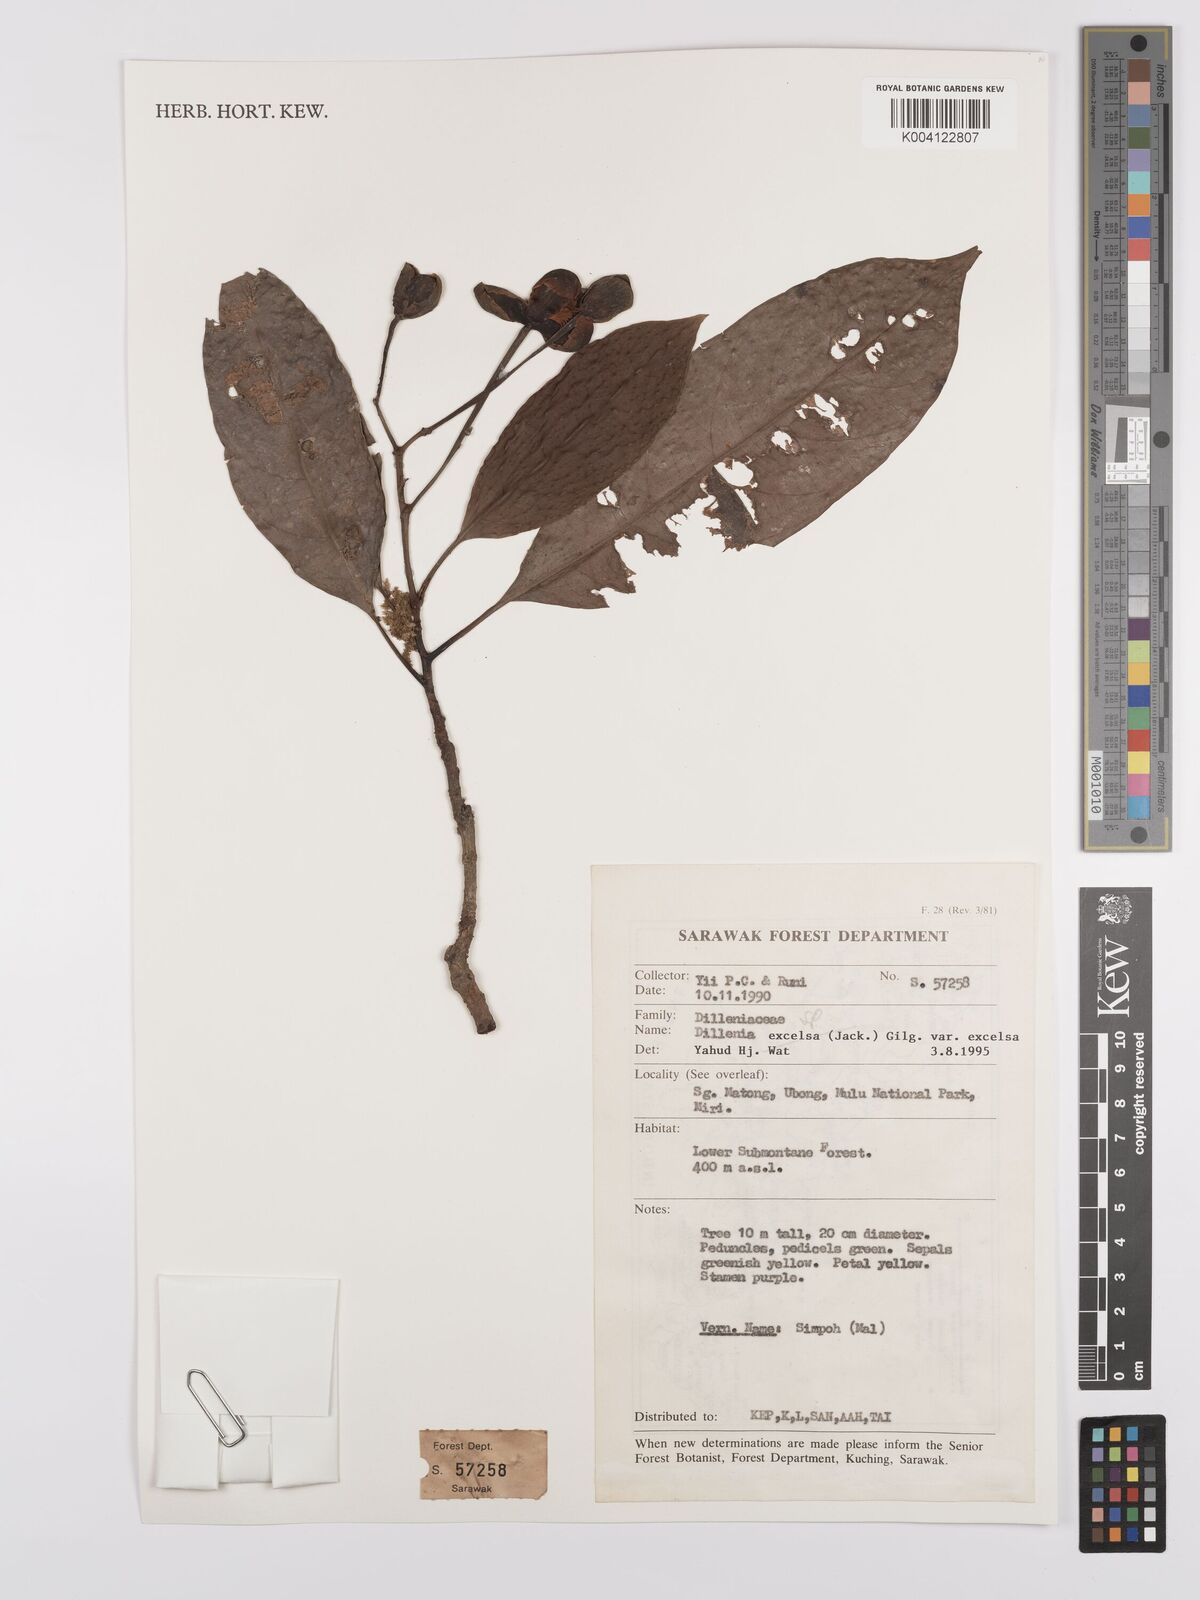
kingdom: Plantae
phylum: Tracheophyta
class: Magnoliopsida
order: Dilleniales
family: Dilleniaceae
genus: Dillenia
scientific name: Dillenia
